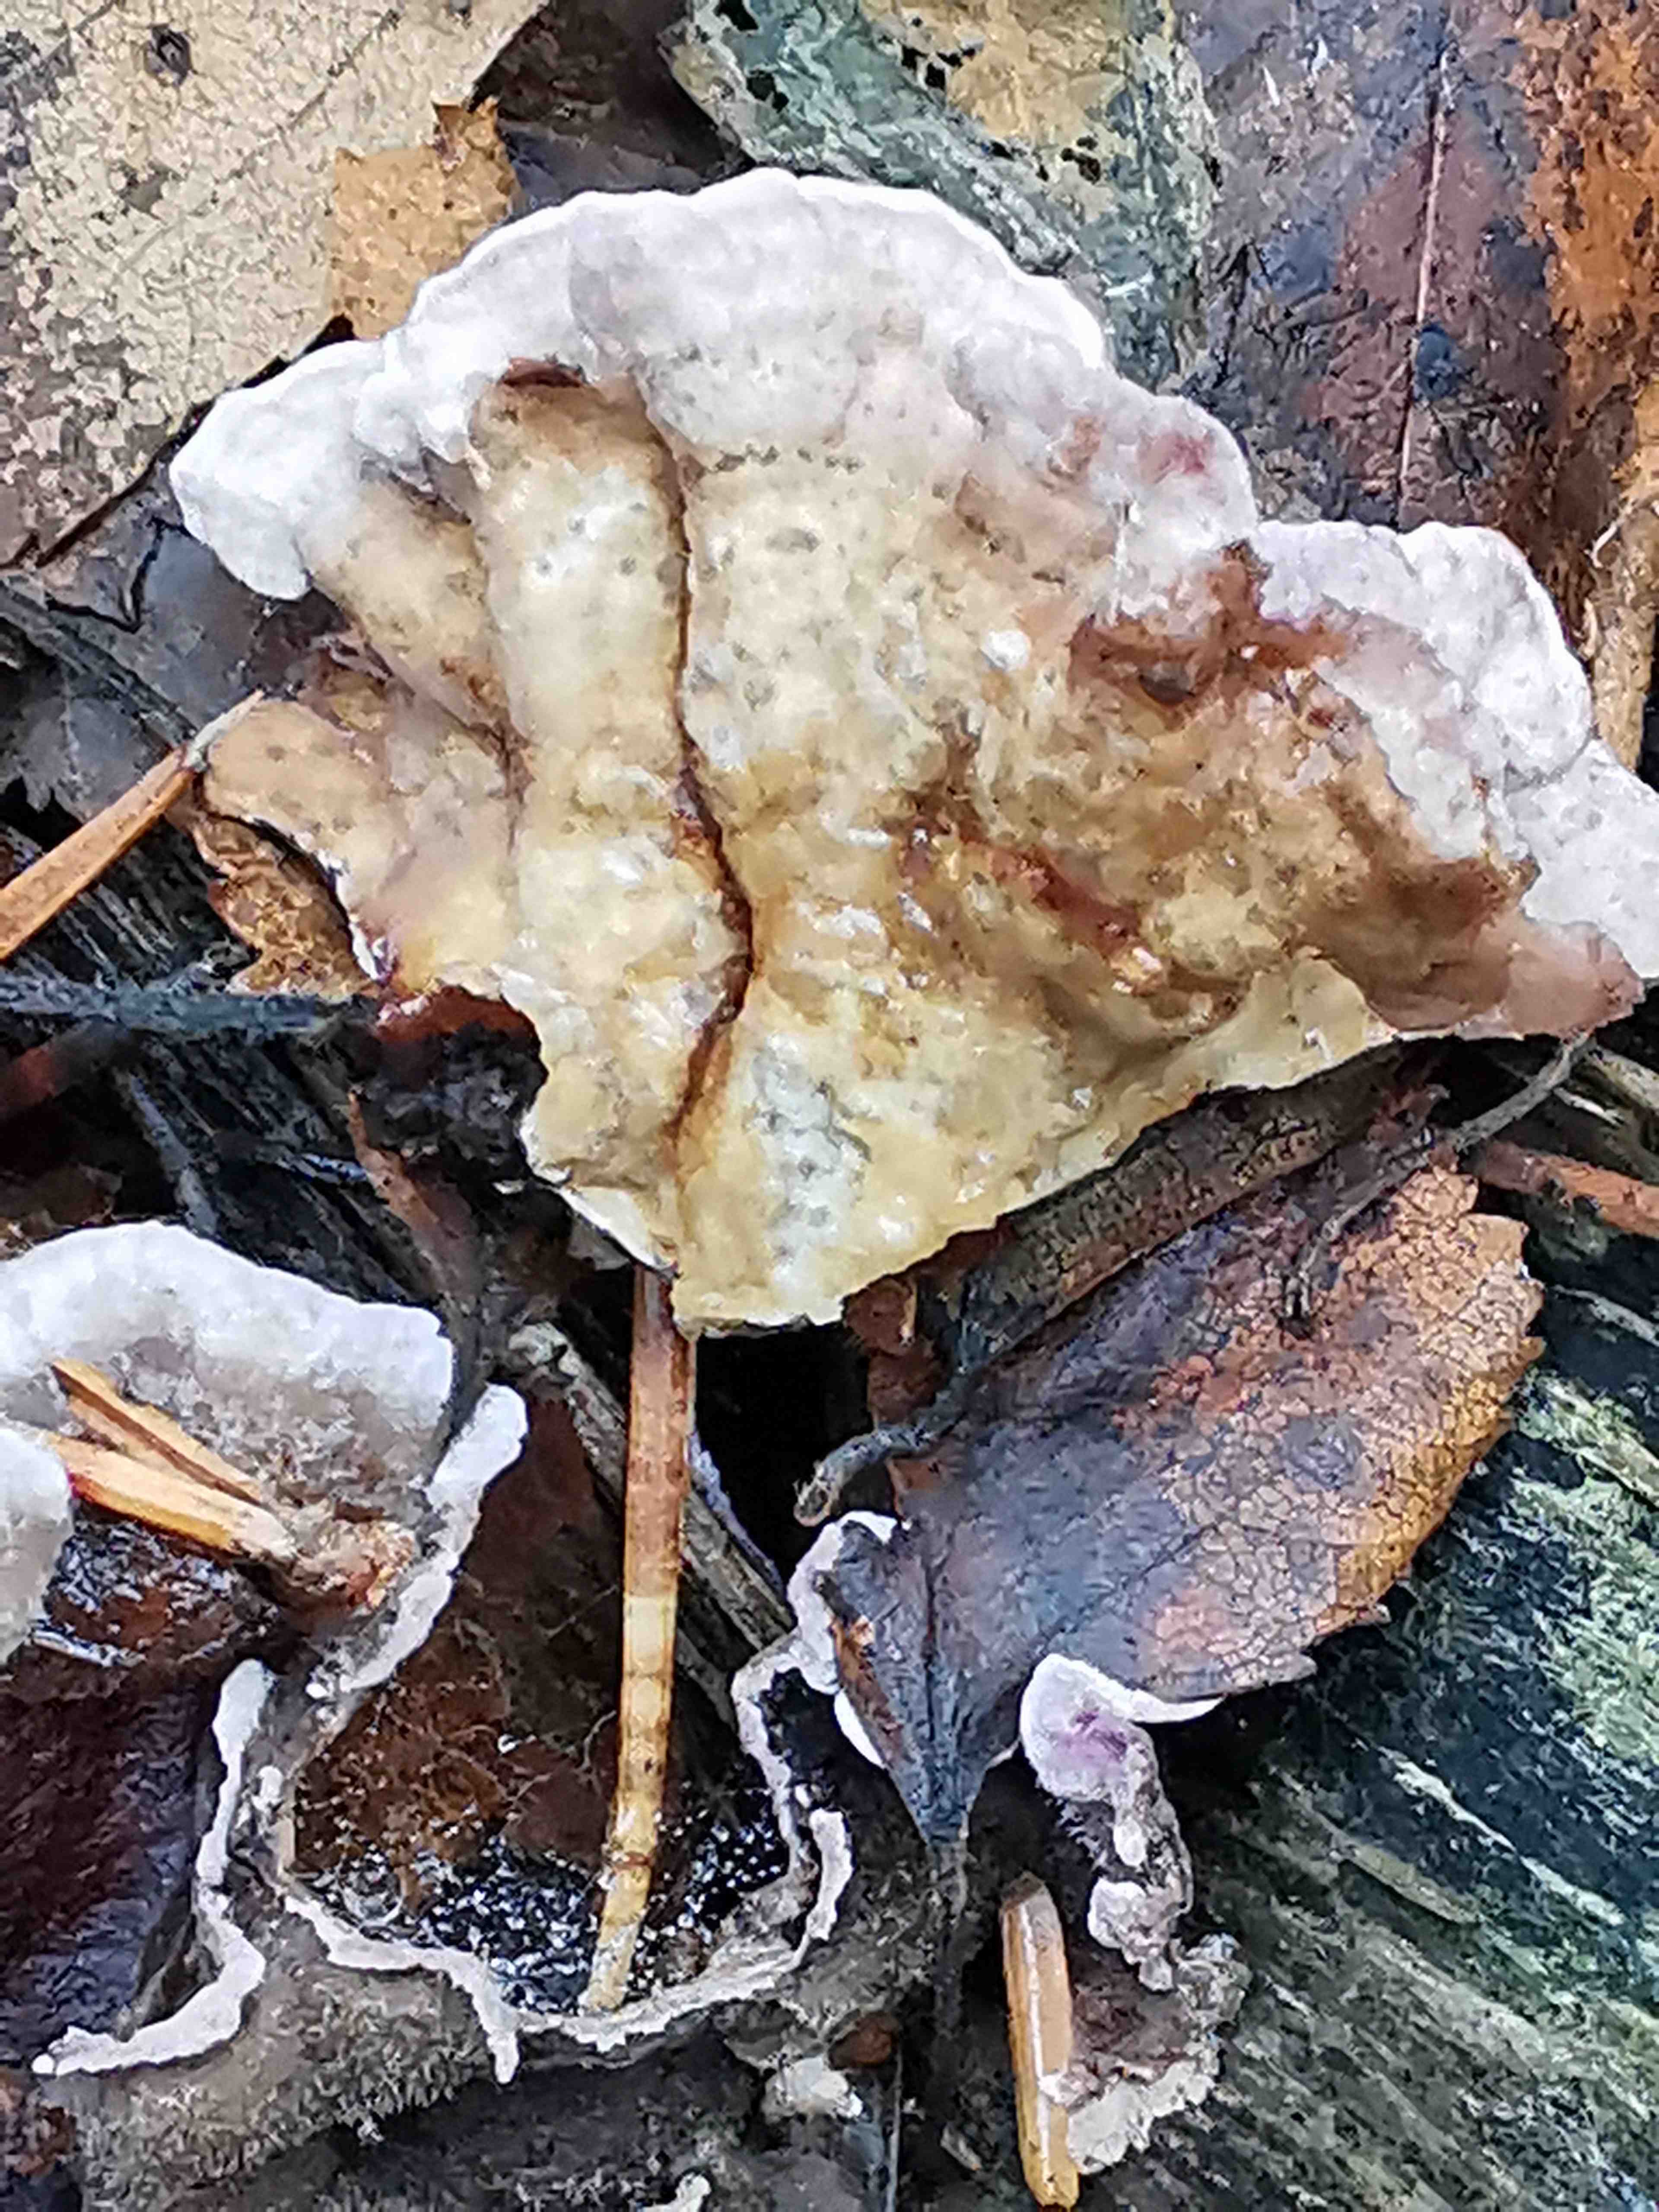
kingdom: Fungi
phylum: Basidiomycota
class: Agaricomycetes
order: Agaricales
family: Cyphellaceae
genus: Chondrostereum
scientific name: Chondrostereum purpureum
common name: purpurlædersvamp
